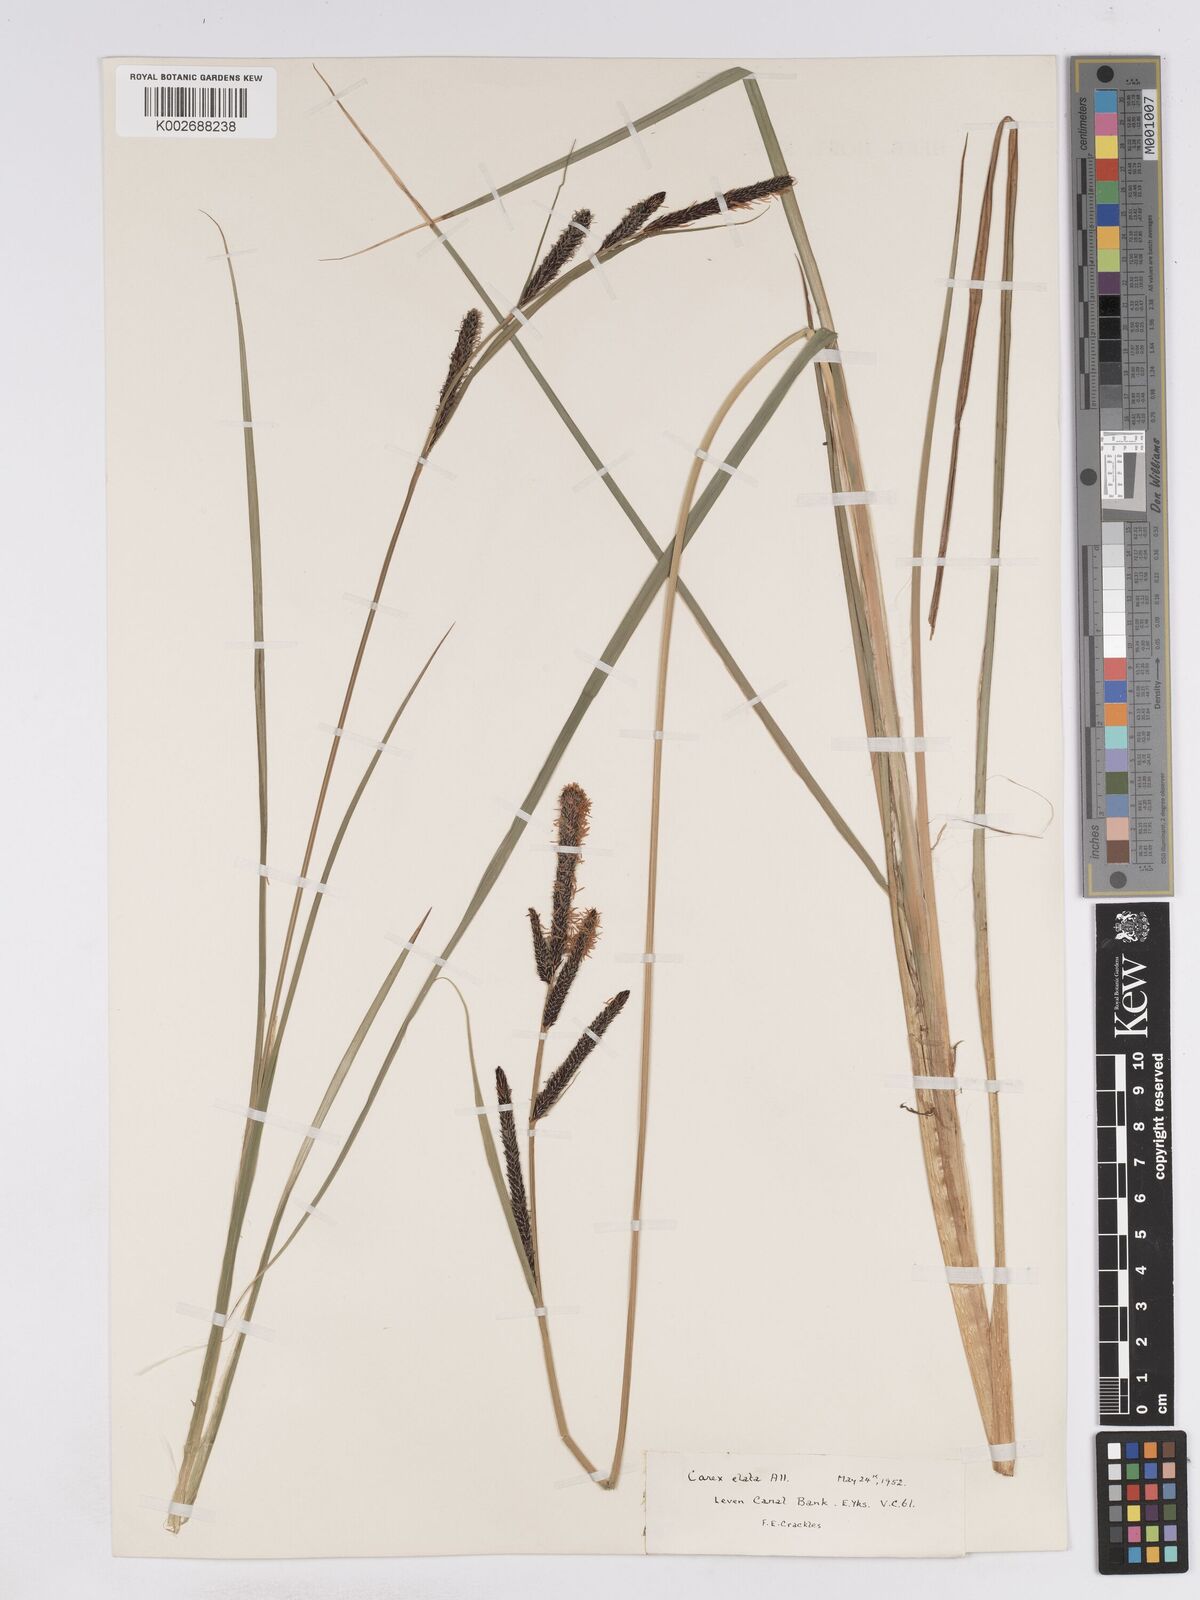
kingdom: Plantae
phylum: Tracheophyta
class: Liliopsida
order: Poales
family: Cyperaceae
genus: Carex
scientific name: Carex elata
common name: Tufted sedge
